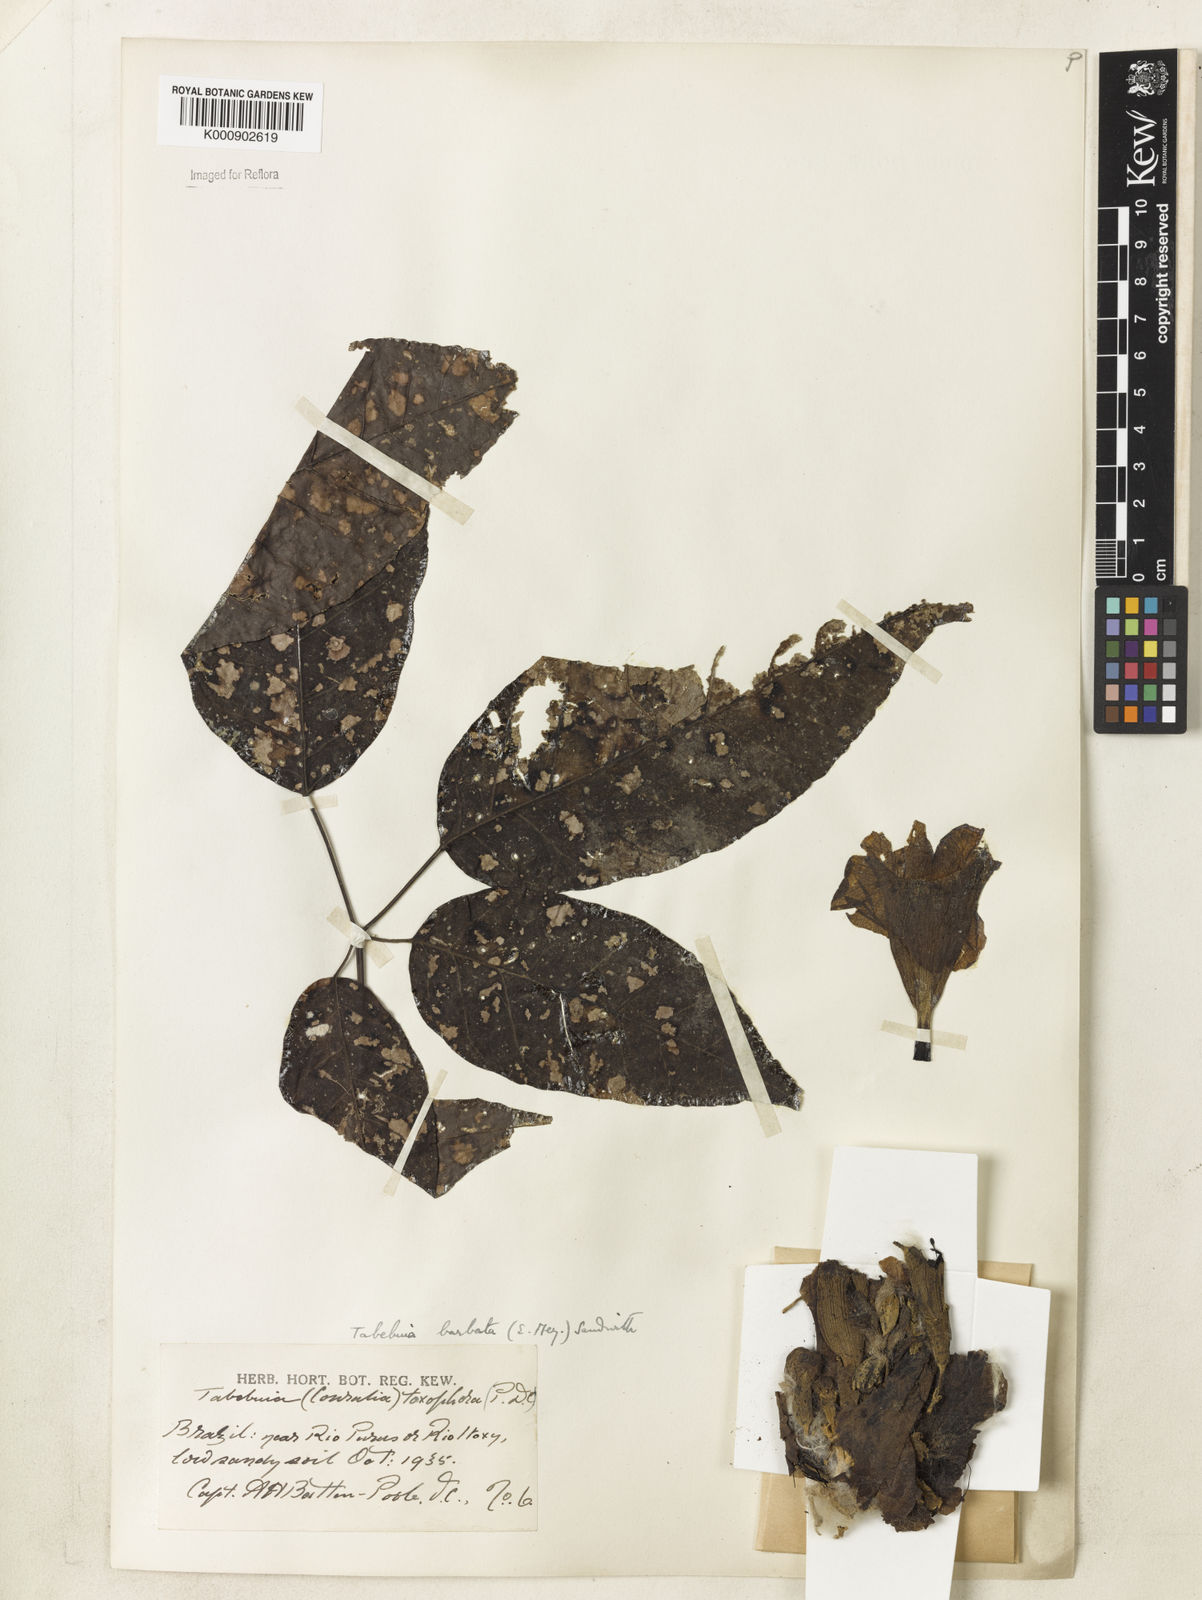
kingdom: Plantae
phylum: Tracheophyta
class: Magnoliopsida
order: Lamiales
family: Bignoniaceae
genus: Handroanthus
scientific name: Handroanthus barbatus
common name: Trumpet trees
